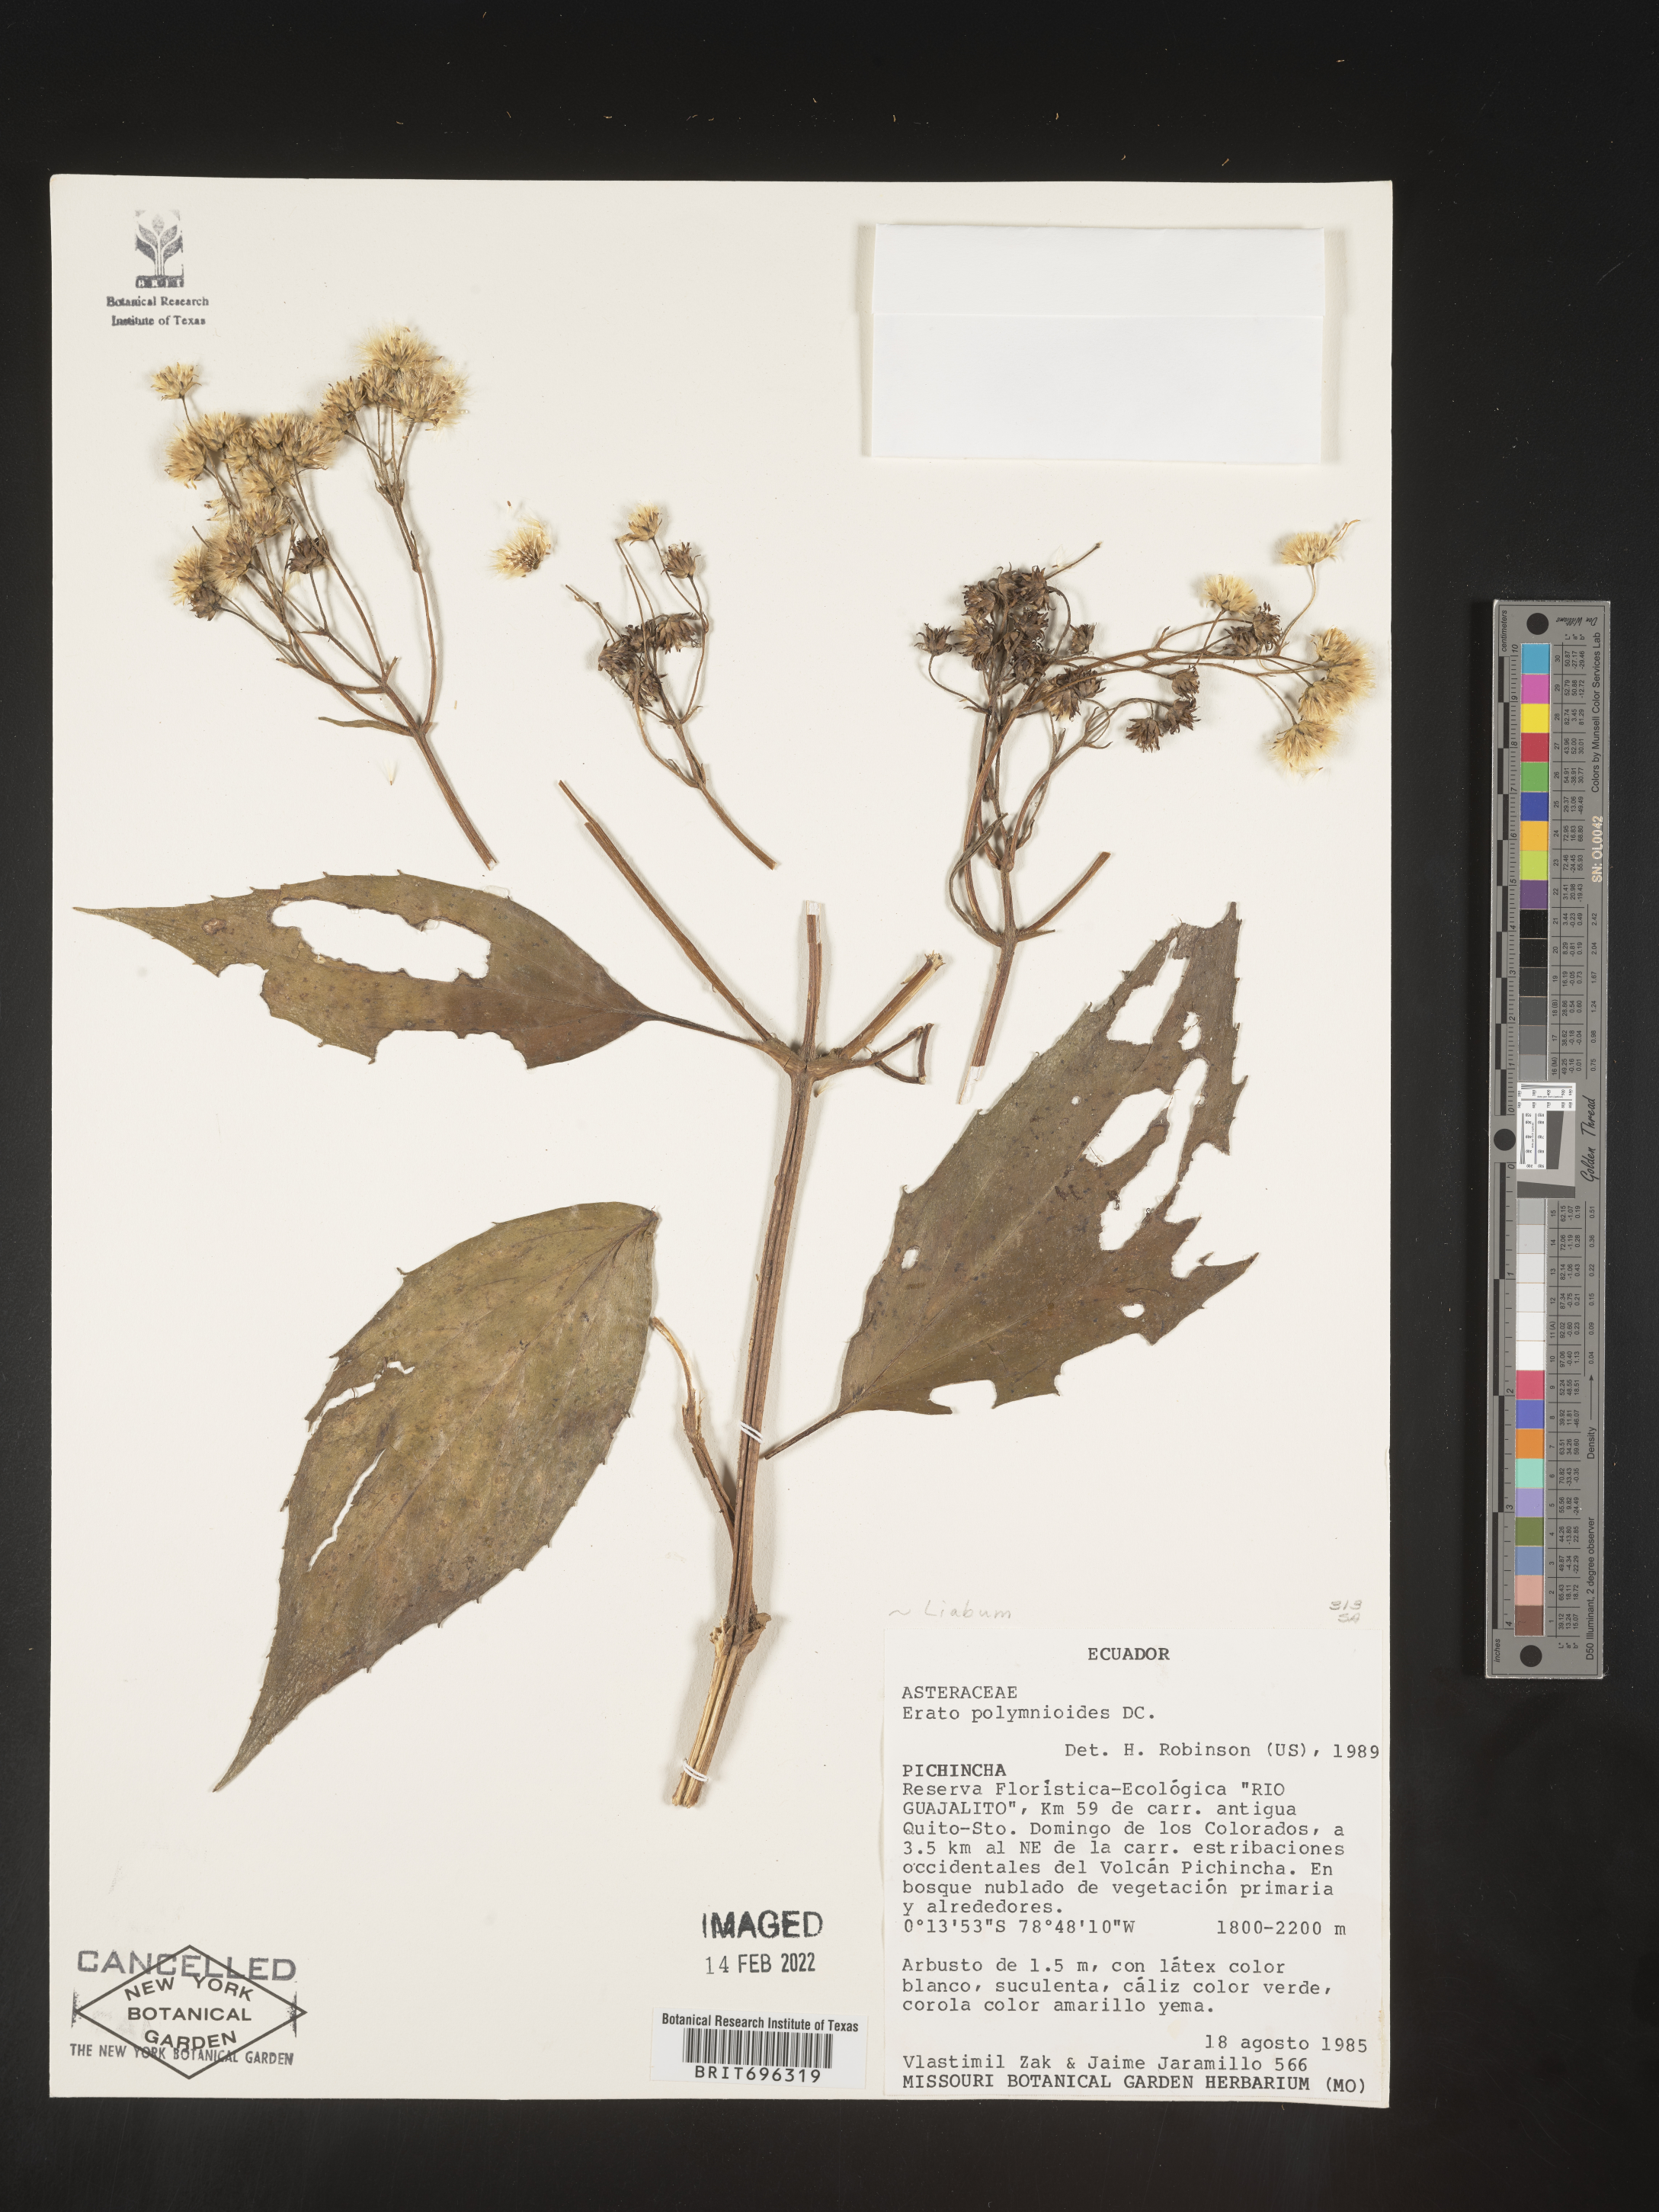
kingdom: Plantae
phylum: Tracheophyta
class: Magnoliopsida
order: Asterales
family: Asteraceae
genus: Erato
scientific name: Erato
